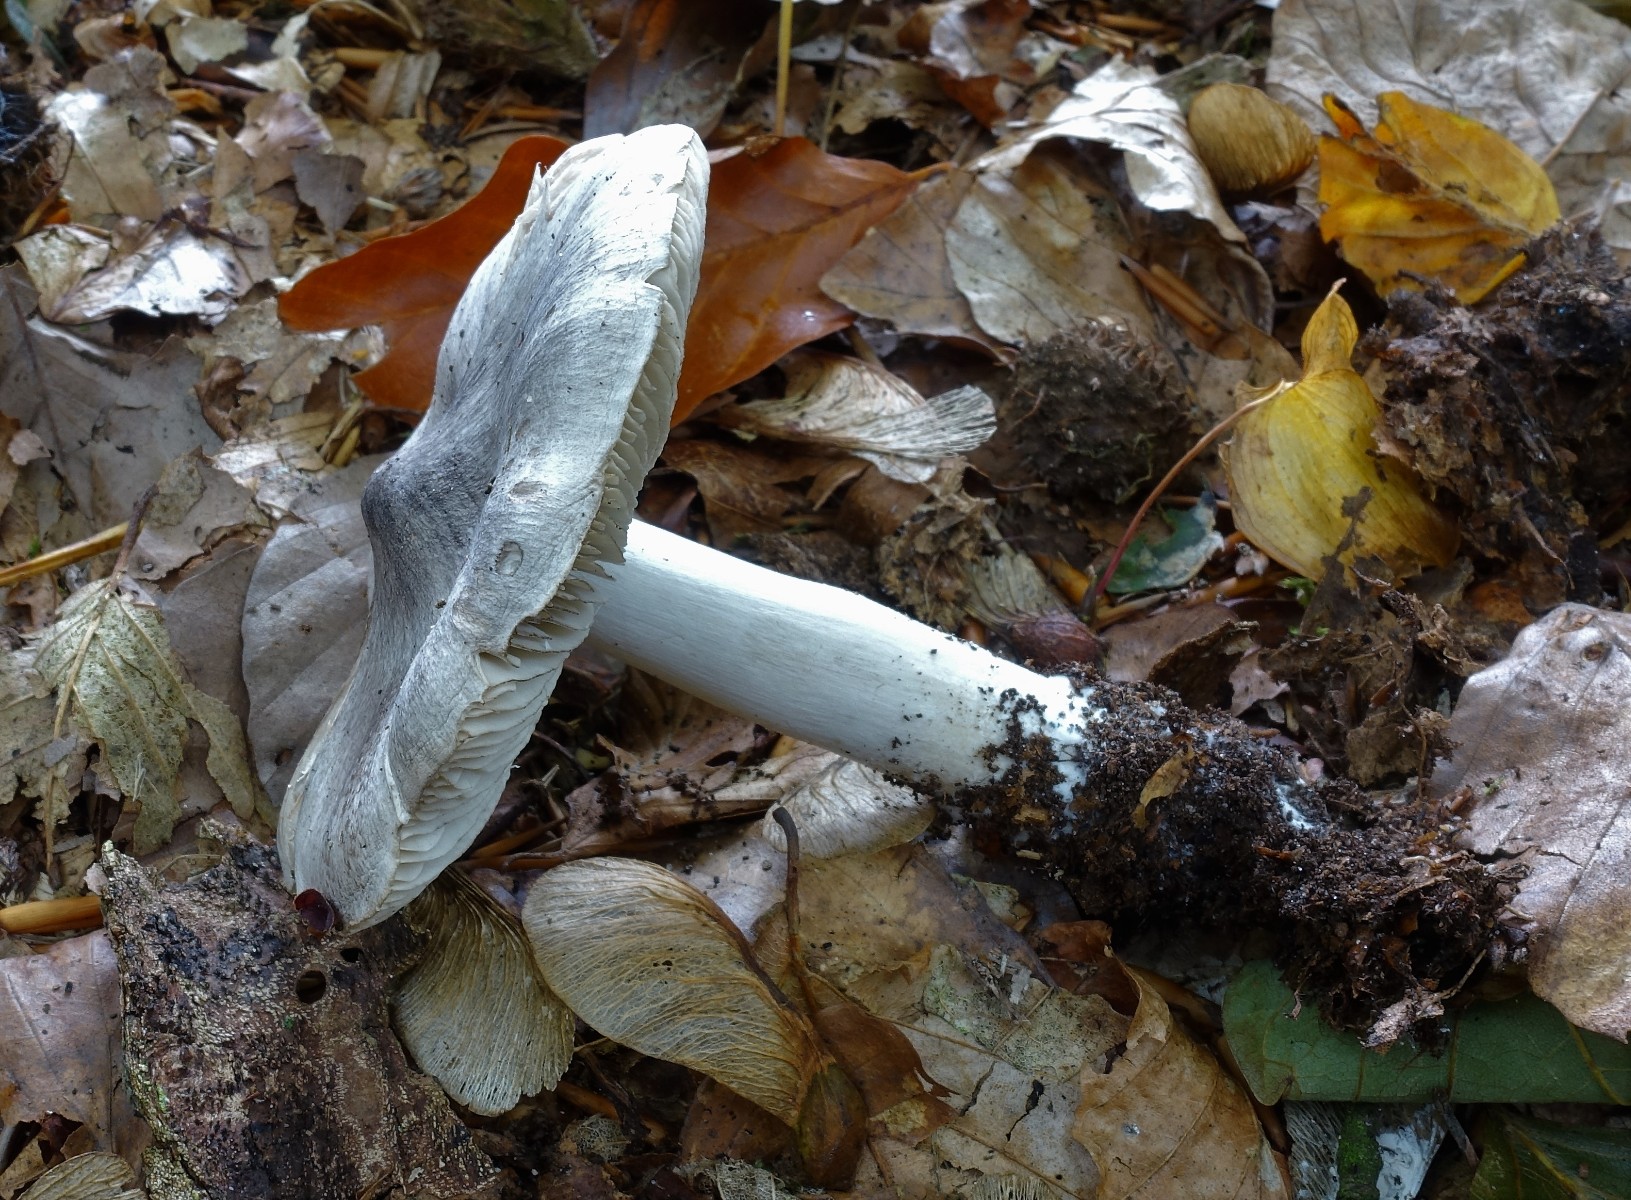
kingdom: Fungi
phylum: Basidiomycota
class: Agaricomycetes
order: Agaricales
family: Tricholomataceae
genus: Tricholoma
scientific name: Tricholoma sciodes
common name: stribet ridderhat
